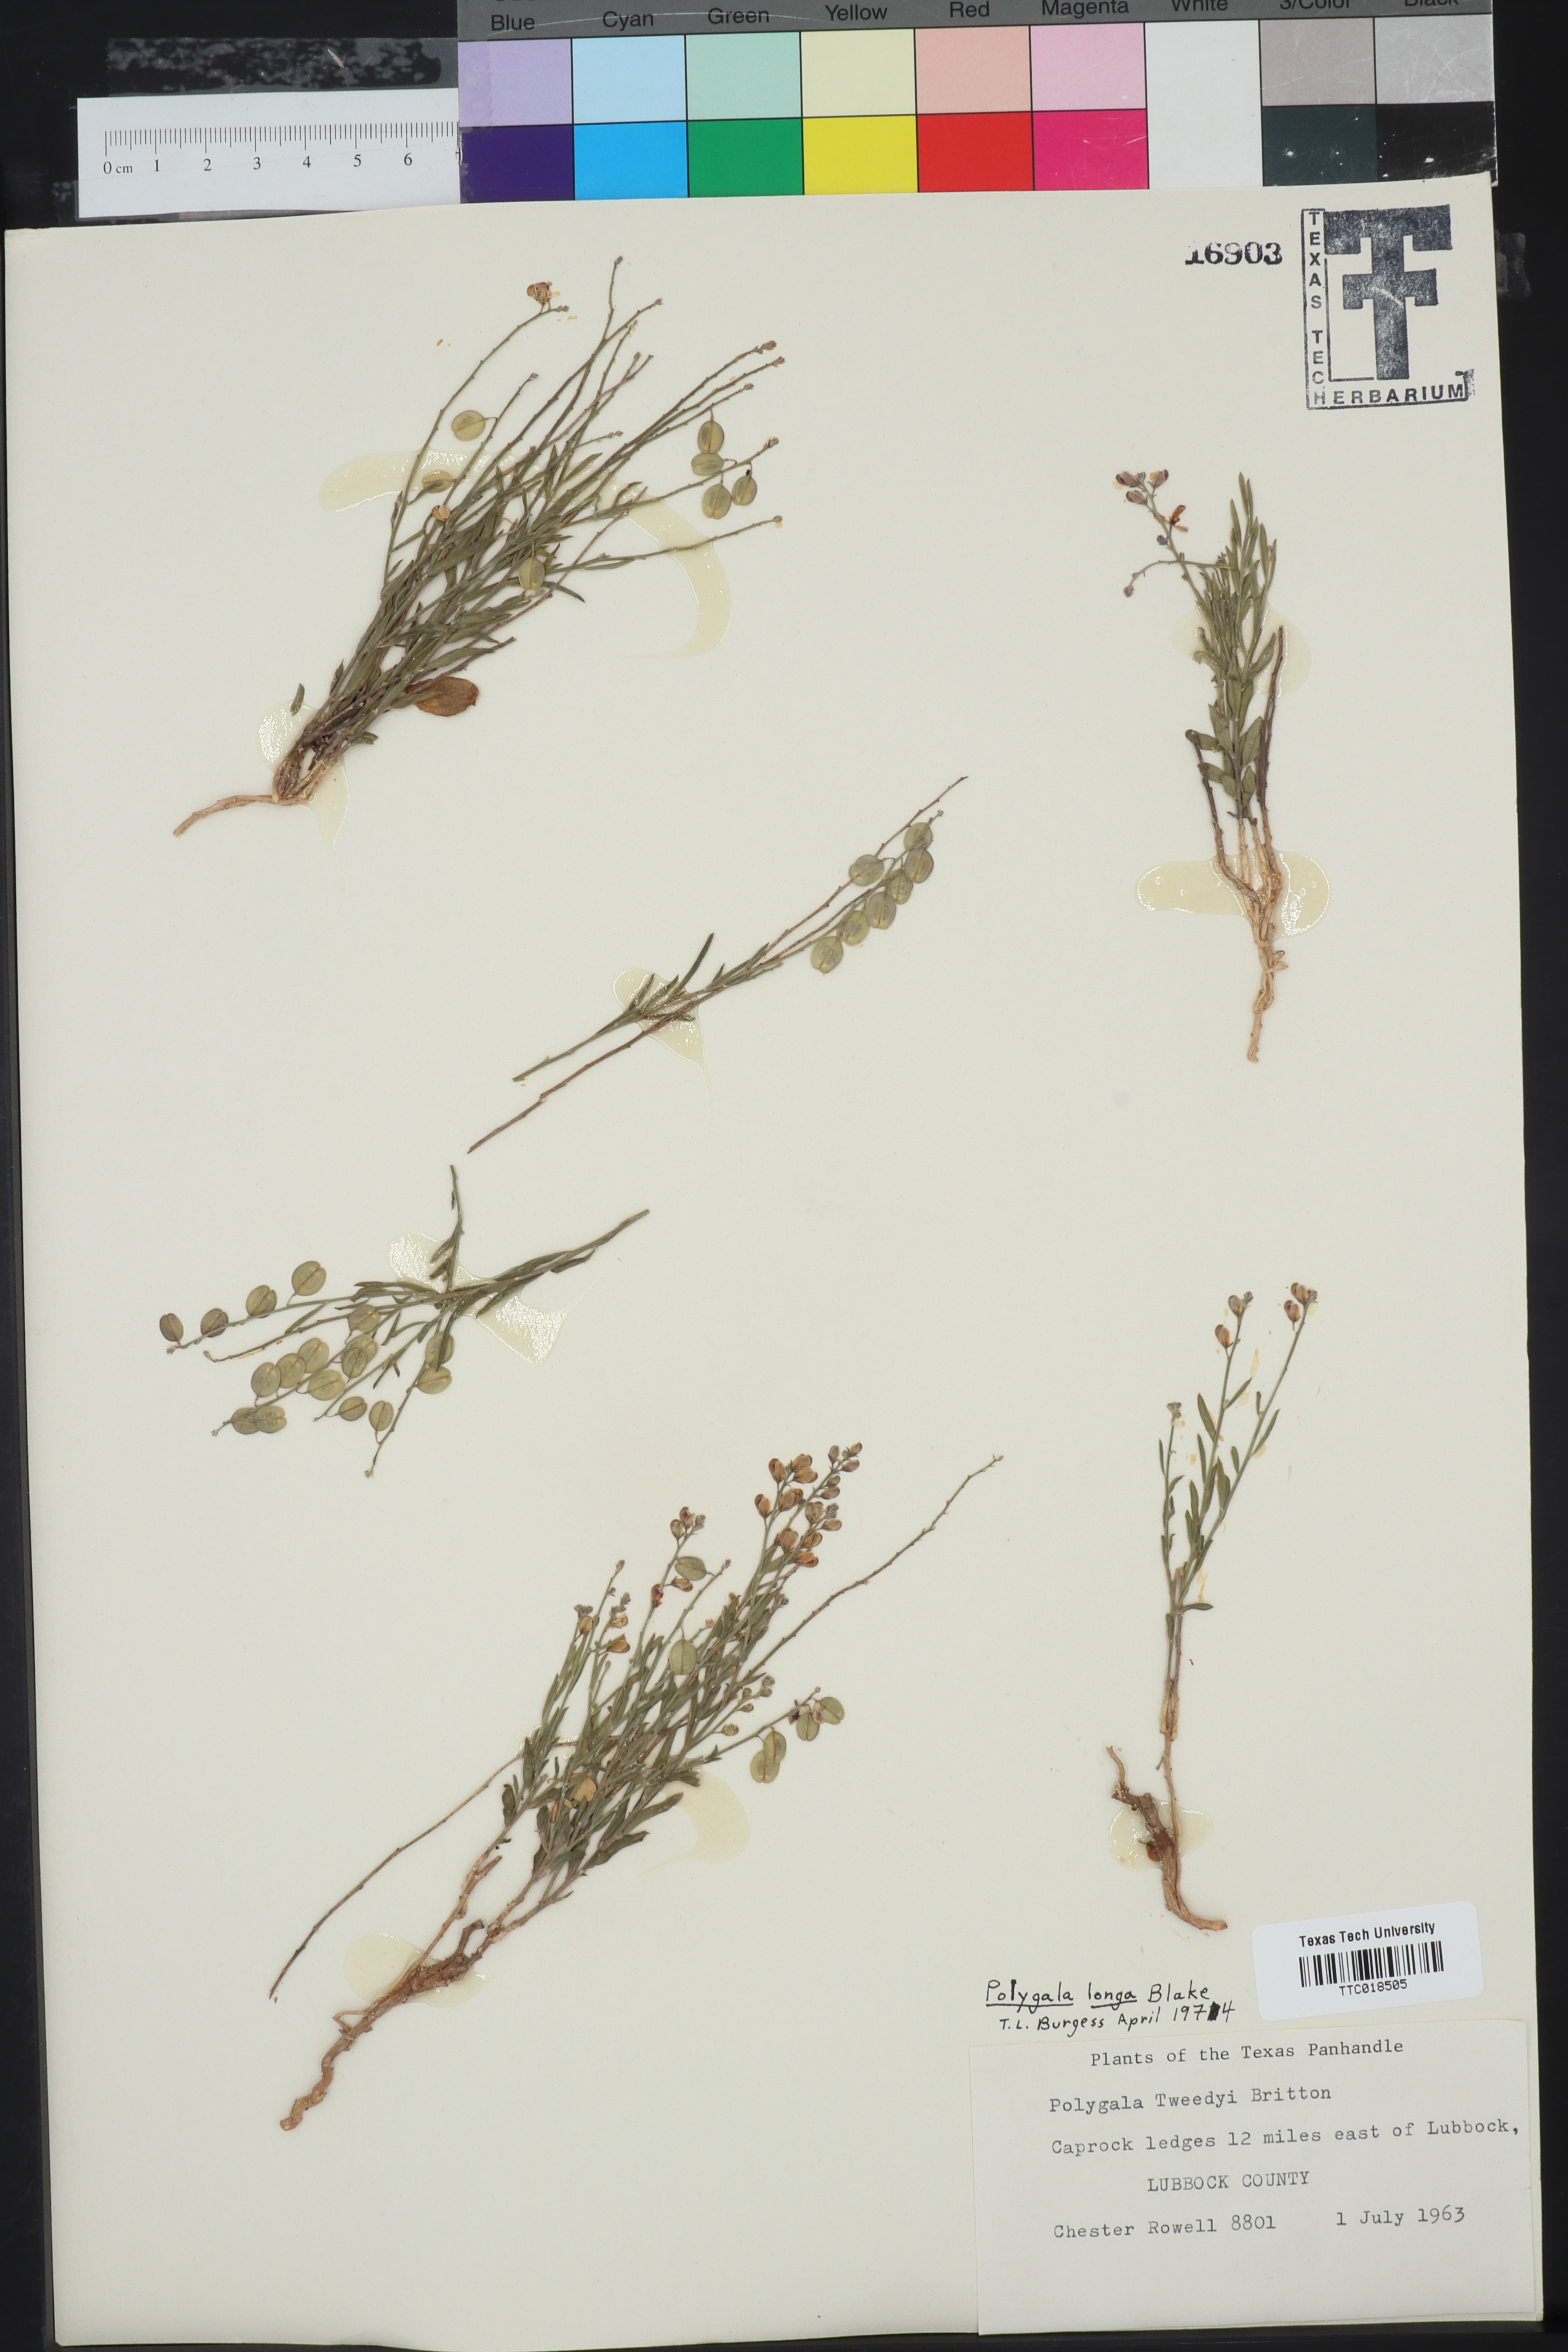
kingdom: Plantae
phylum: Tracheophyta
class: Magnoliopsida
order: Fabales
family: Polygalaceae
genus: Hebecarpa
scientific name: Hebecarpa barbeyana
